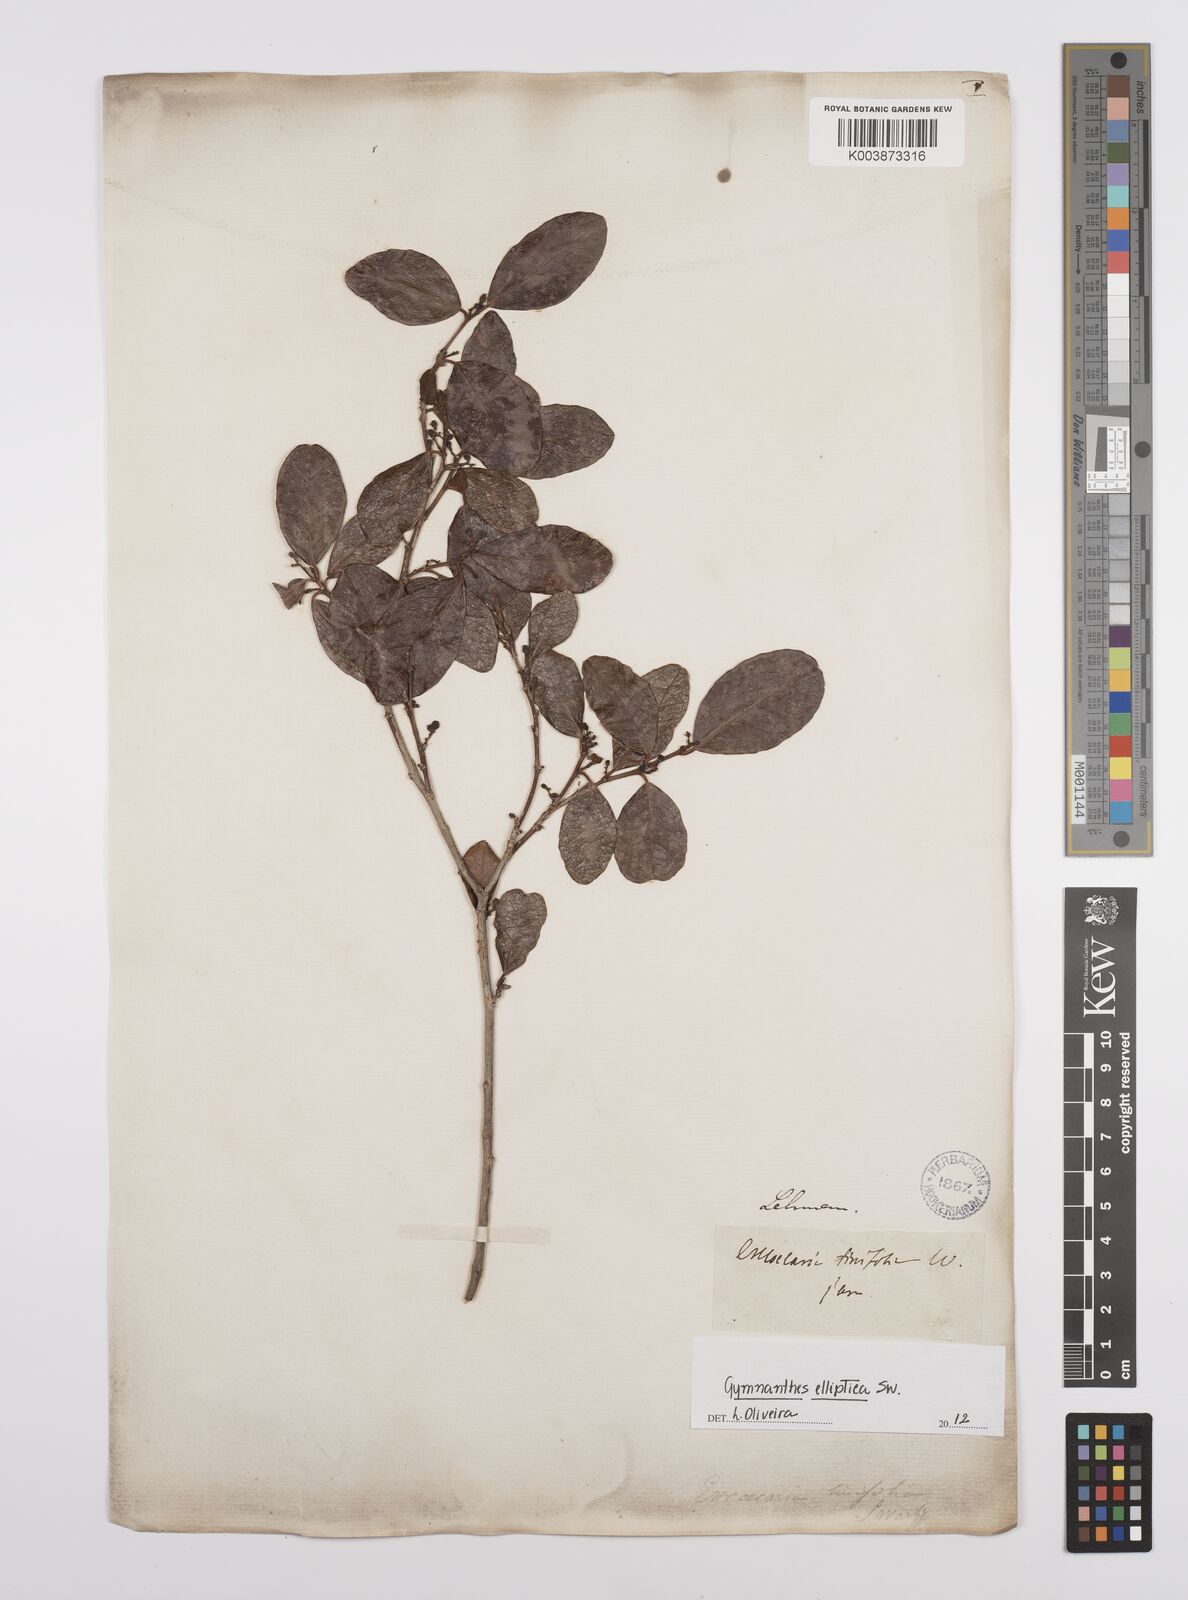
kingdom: Plantae
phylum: Tracheophyta
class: Magnoliopsida
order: Malpighiales
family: Euphorbiaceae
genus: Dendrocousinsia
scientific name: Dendrocousinsia elliptica
